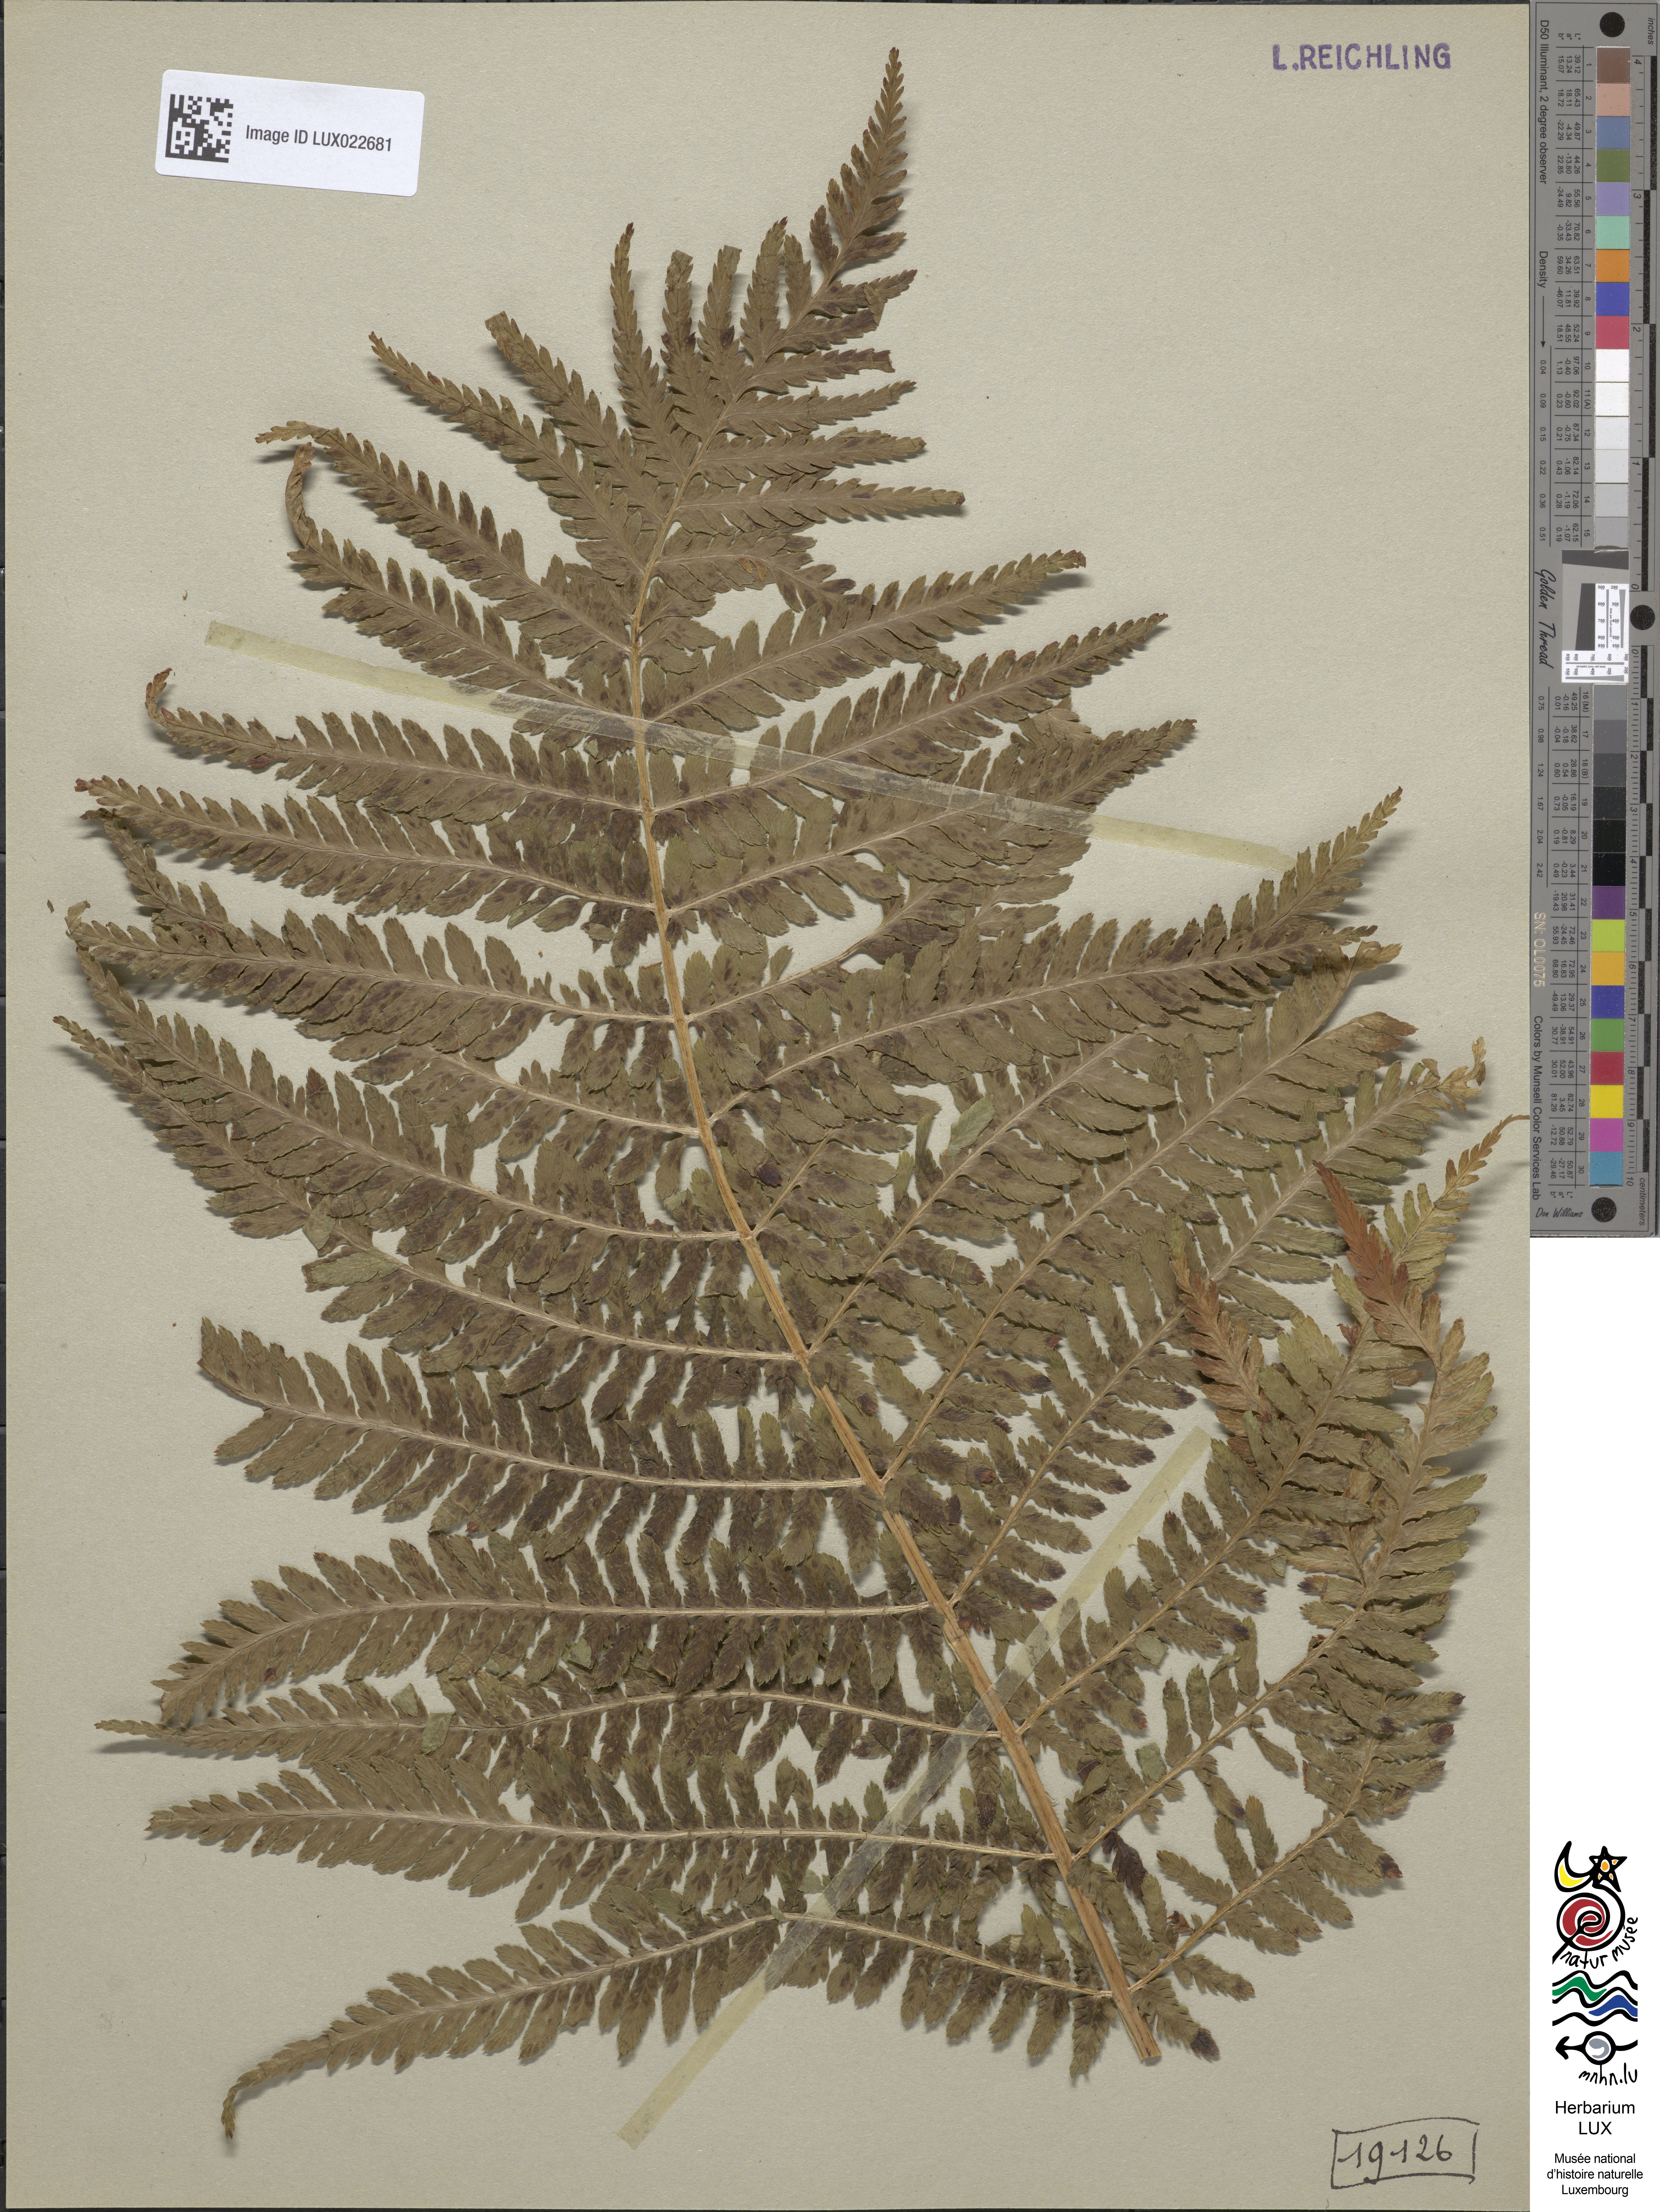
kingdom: Plantae
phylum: Tracheophyta
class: Polypodiopsida
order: Polypodiales
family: Dryopteridaceae
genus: Dryopteris
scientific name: Dryopteris filix-mas
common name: Male fern
